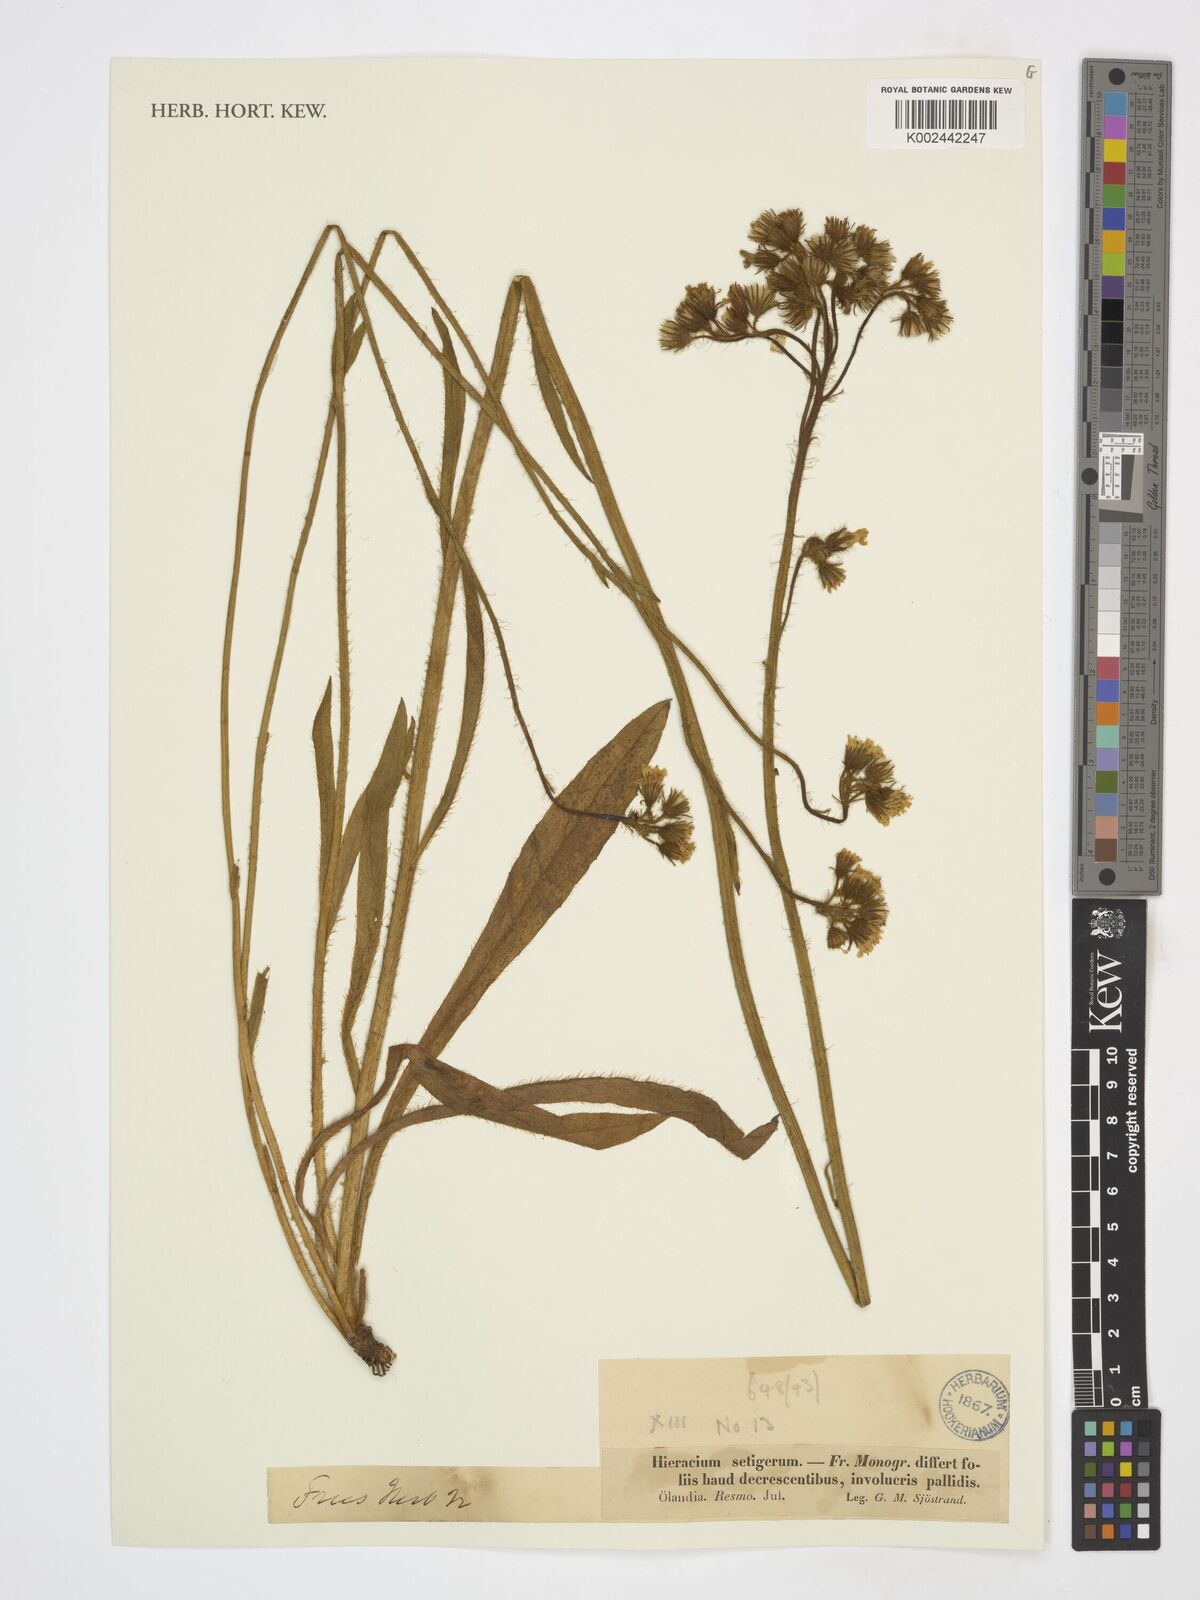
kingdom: Plantae
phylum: Tracheophyta
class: Magnoliopsida
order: Asterales
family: Asteraceae
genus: Pilosella
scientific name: Pilosella rothiana
